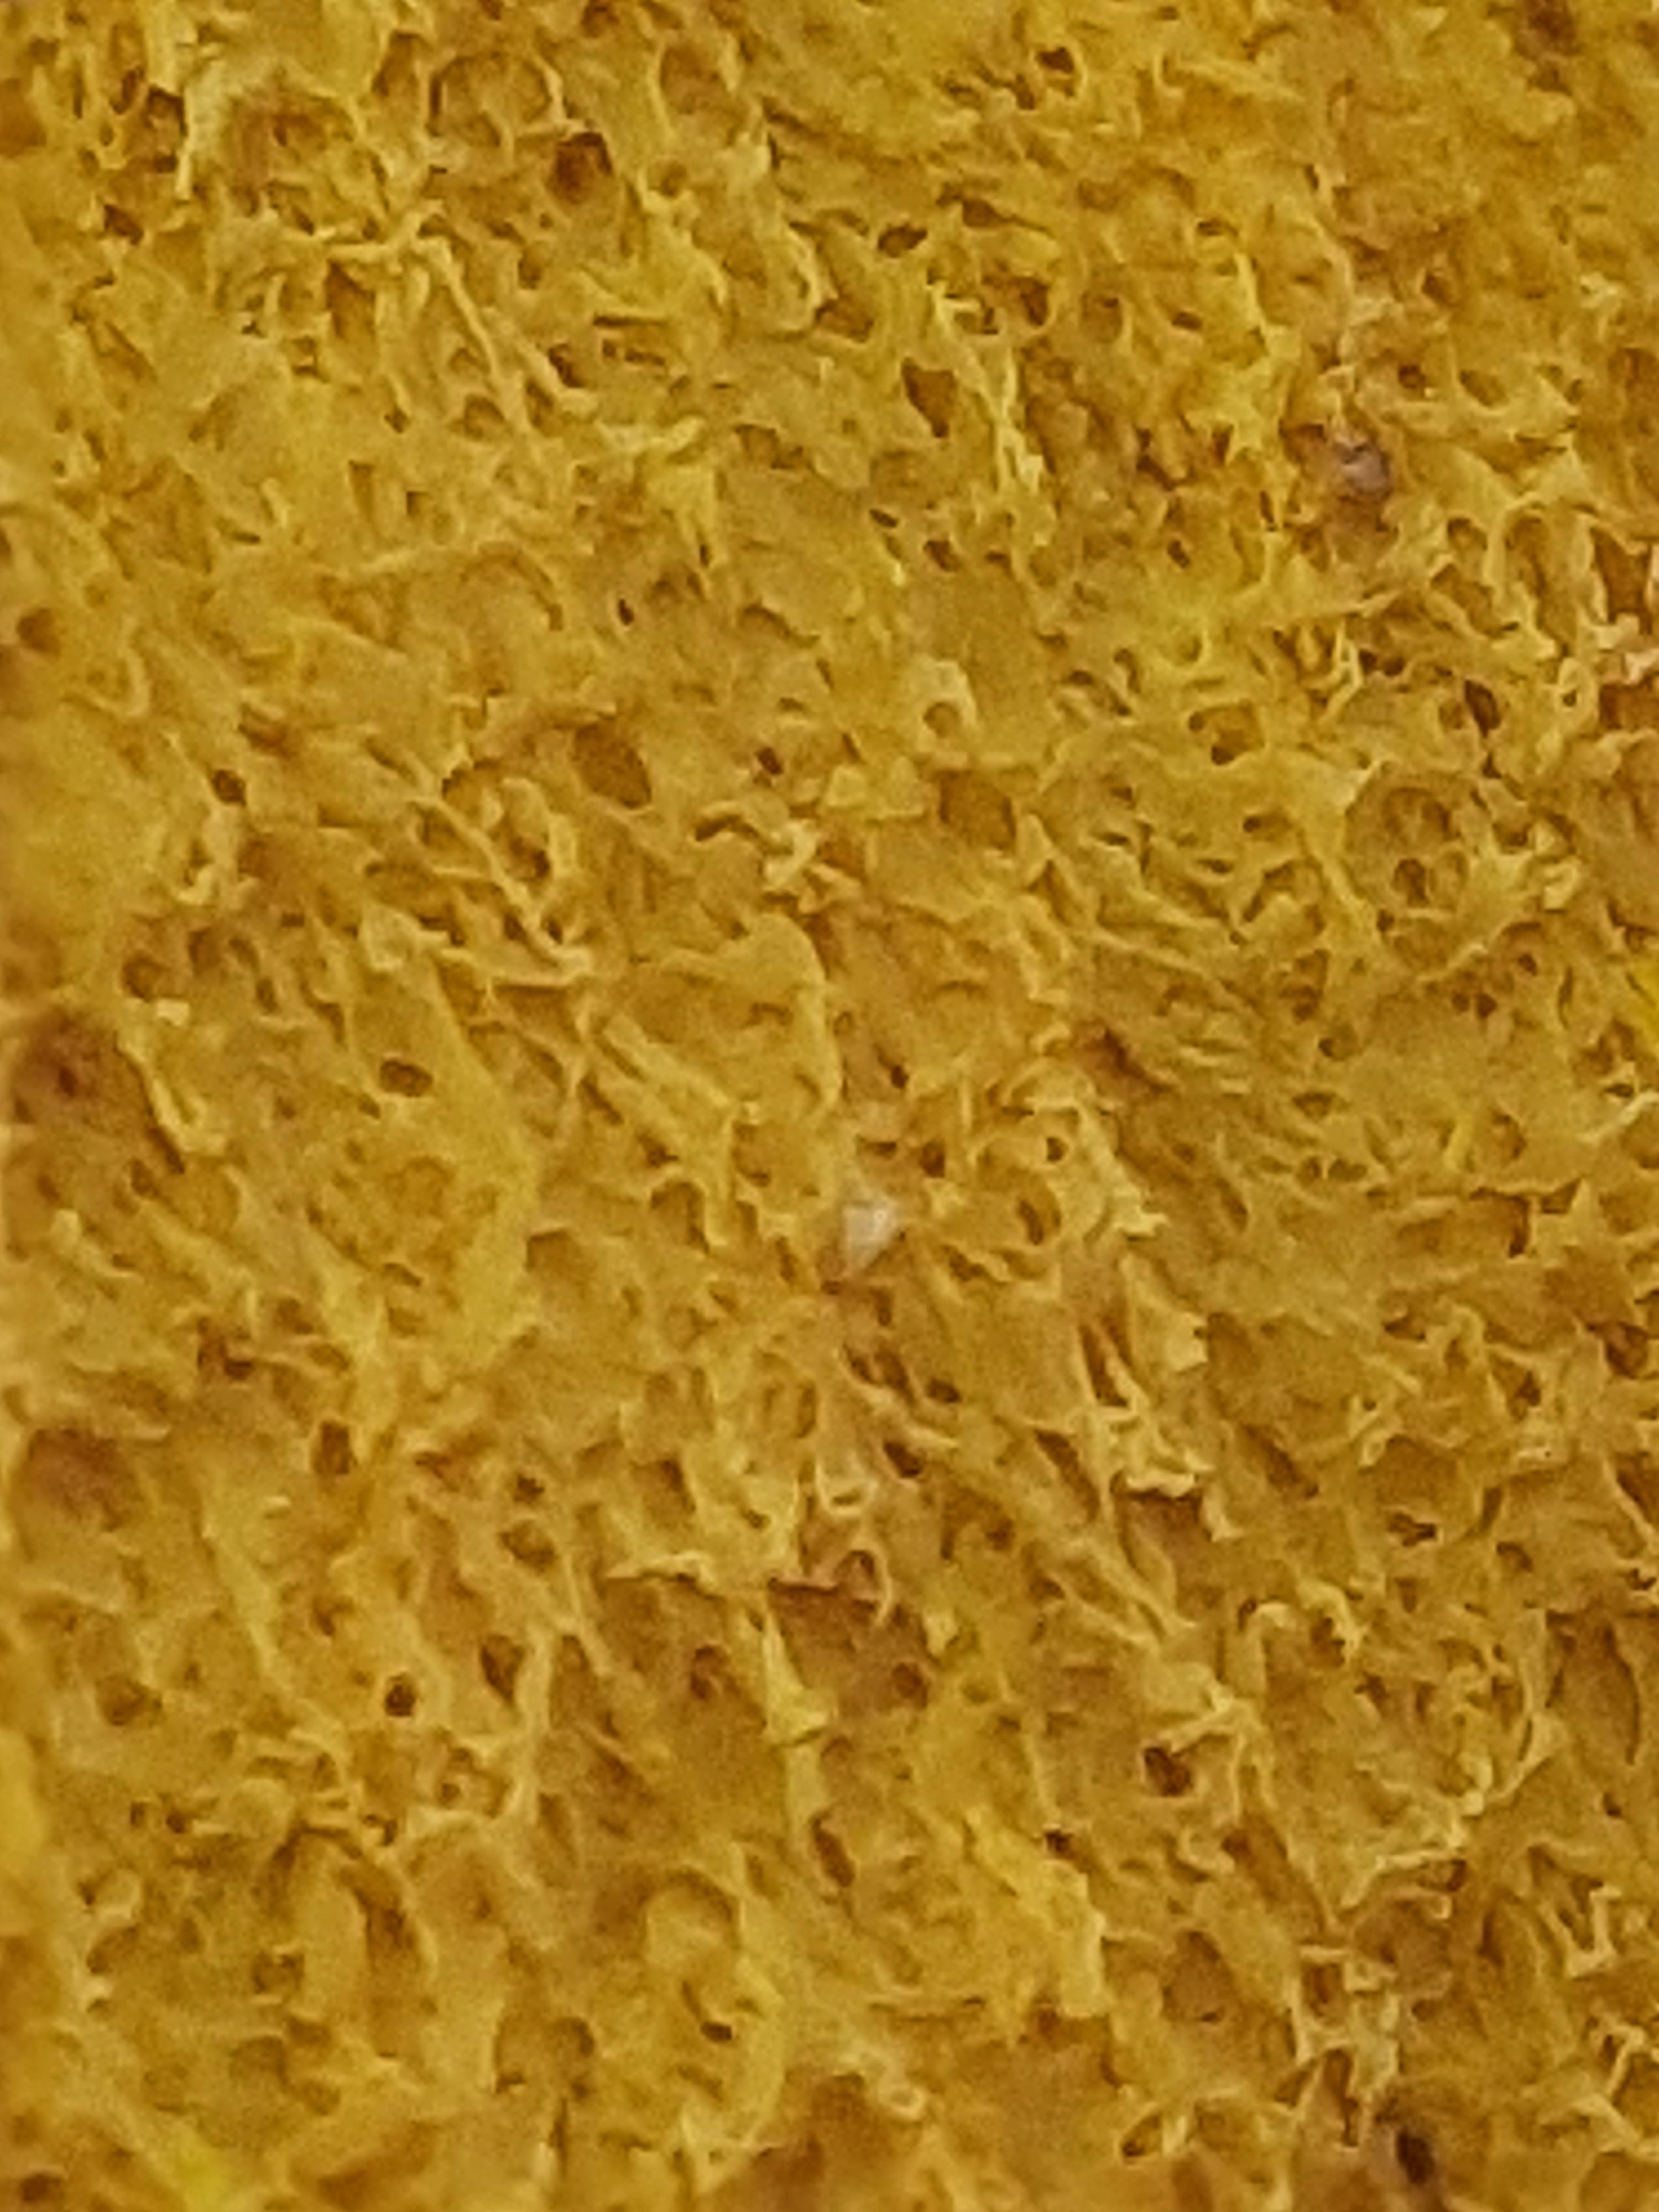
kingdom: Protozoa
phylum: Mycetozoa
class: Myxomycetes
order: Physarales
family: Physaraceae
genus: Fuligo
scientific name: Fuligo septica
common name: gul troldsmør
